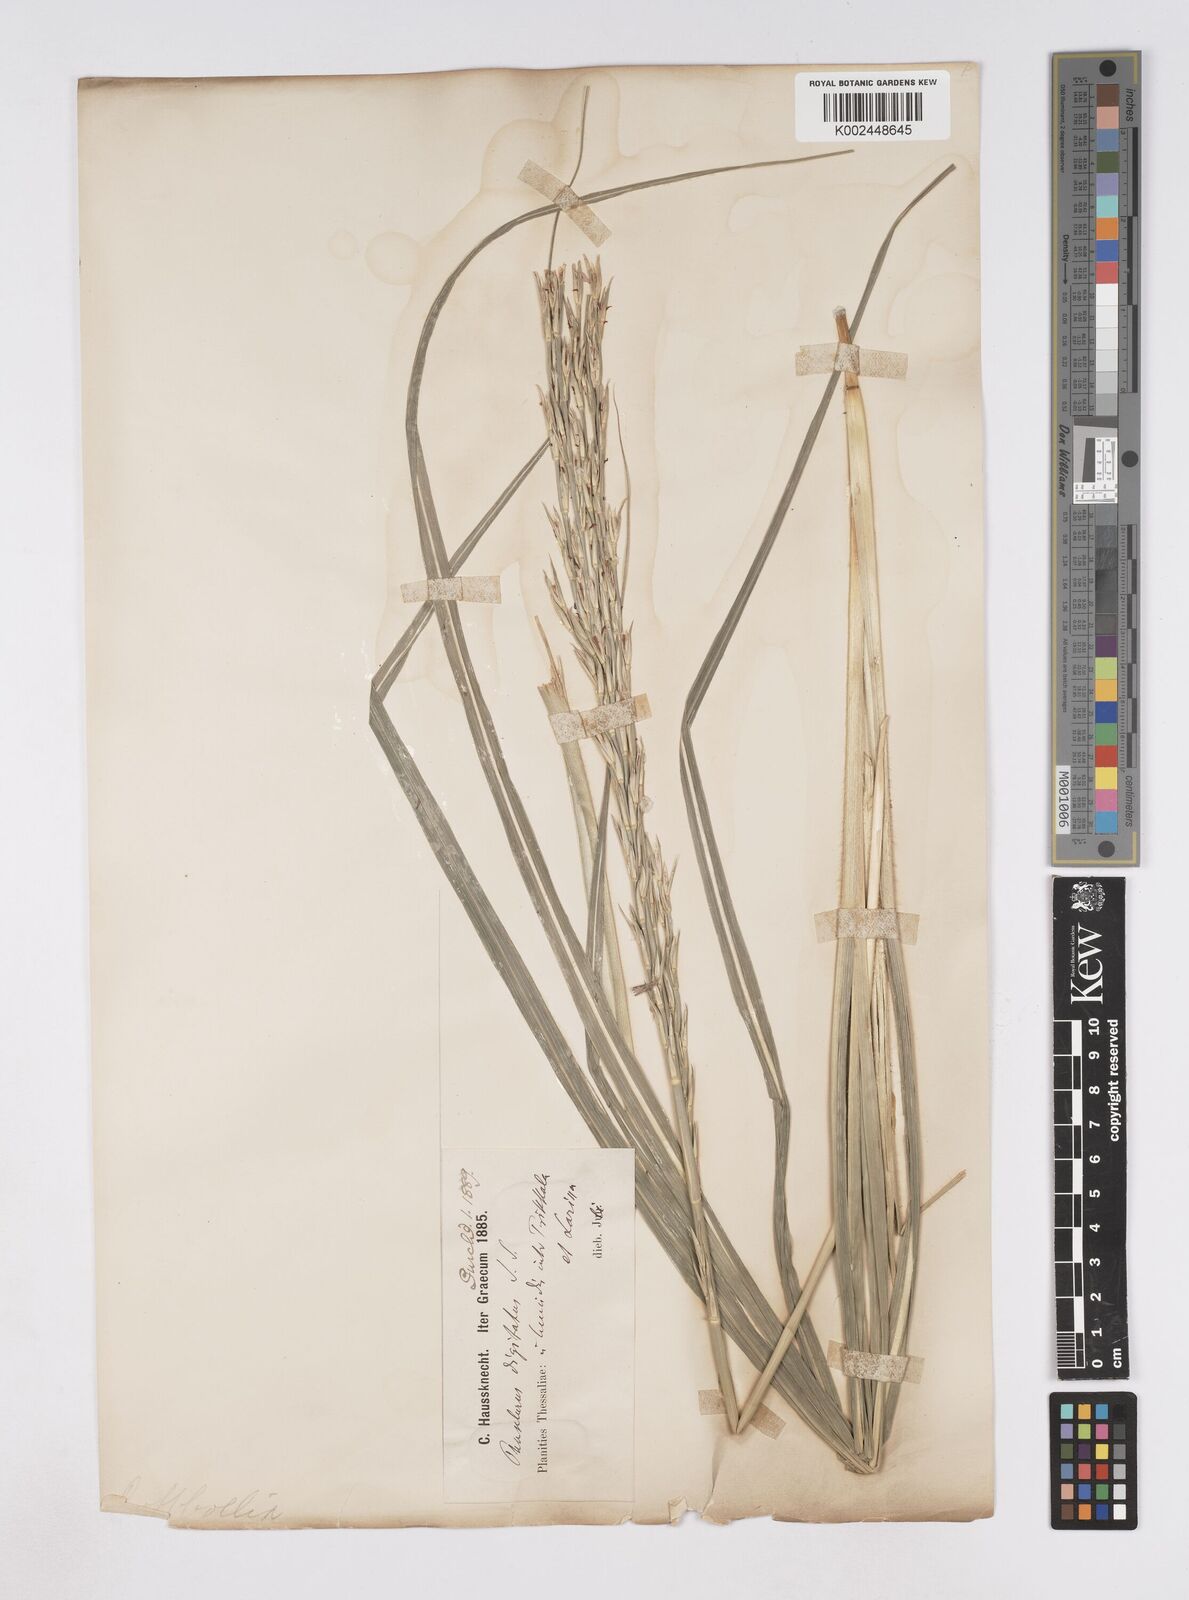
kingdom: Plantae
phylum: Tracheophyta
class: Liliopsida
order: Poales
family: Poaceae
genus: Phacelurus
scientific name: Phacelurus digitatus
